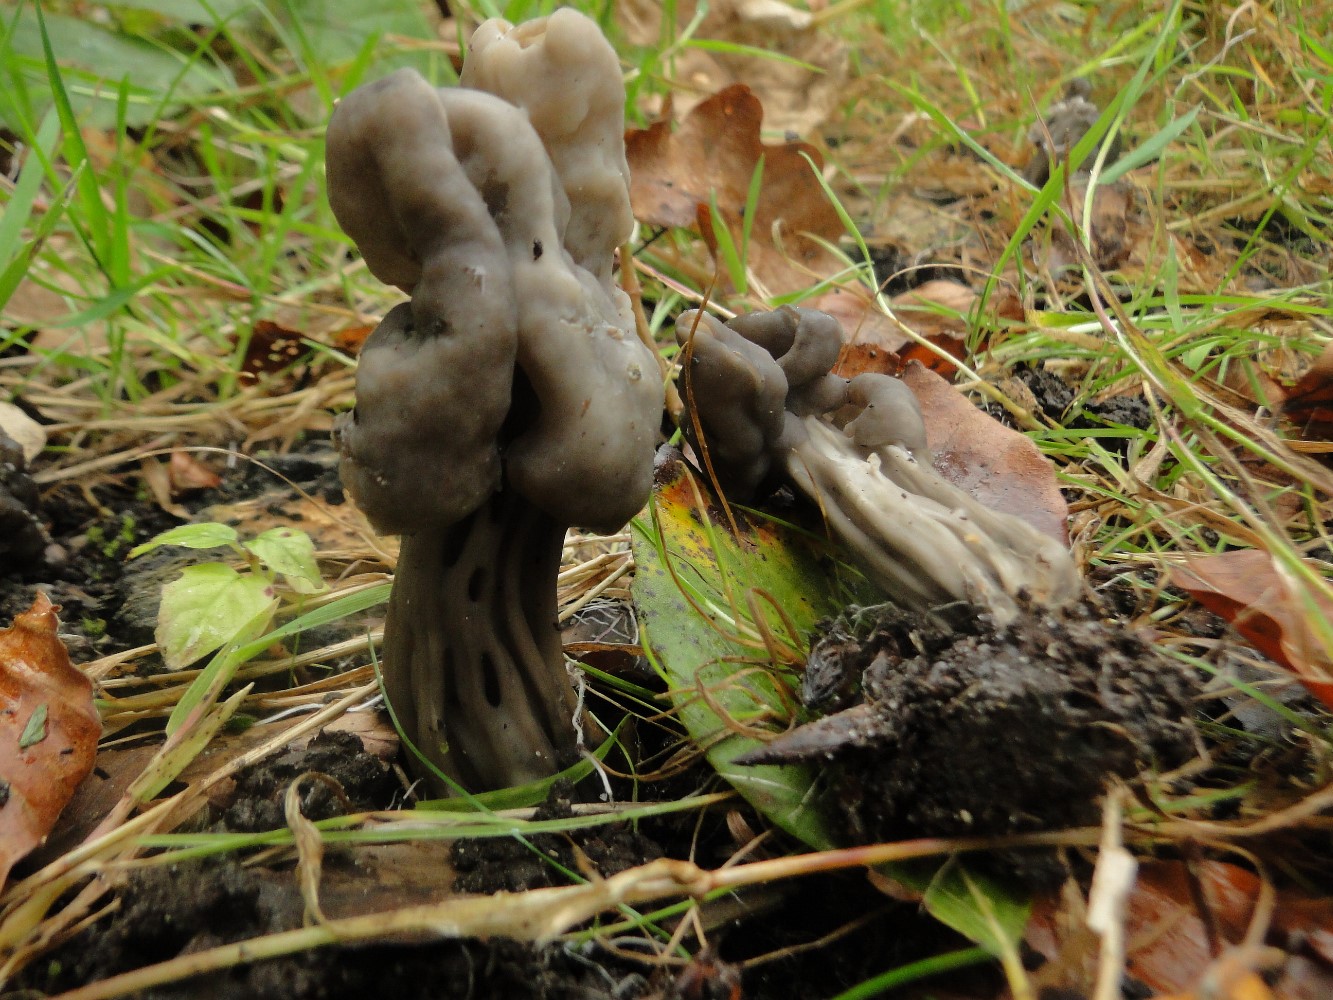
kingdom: Fungi
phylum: Ascomycota
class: Pezizomycetes
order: Pezizales
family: Helvellaceae
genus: Helvella
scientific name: Helvella lacunosa
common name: grubet foldhat
